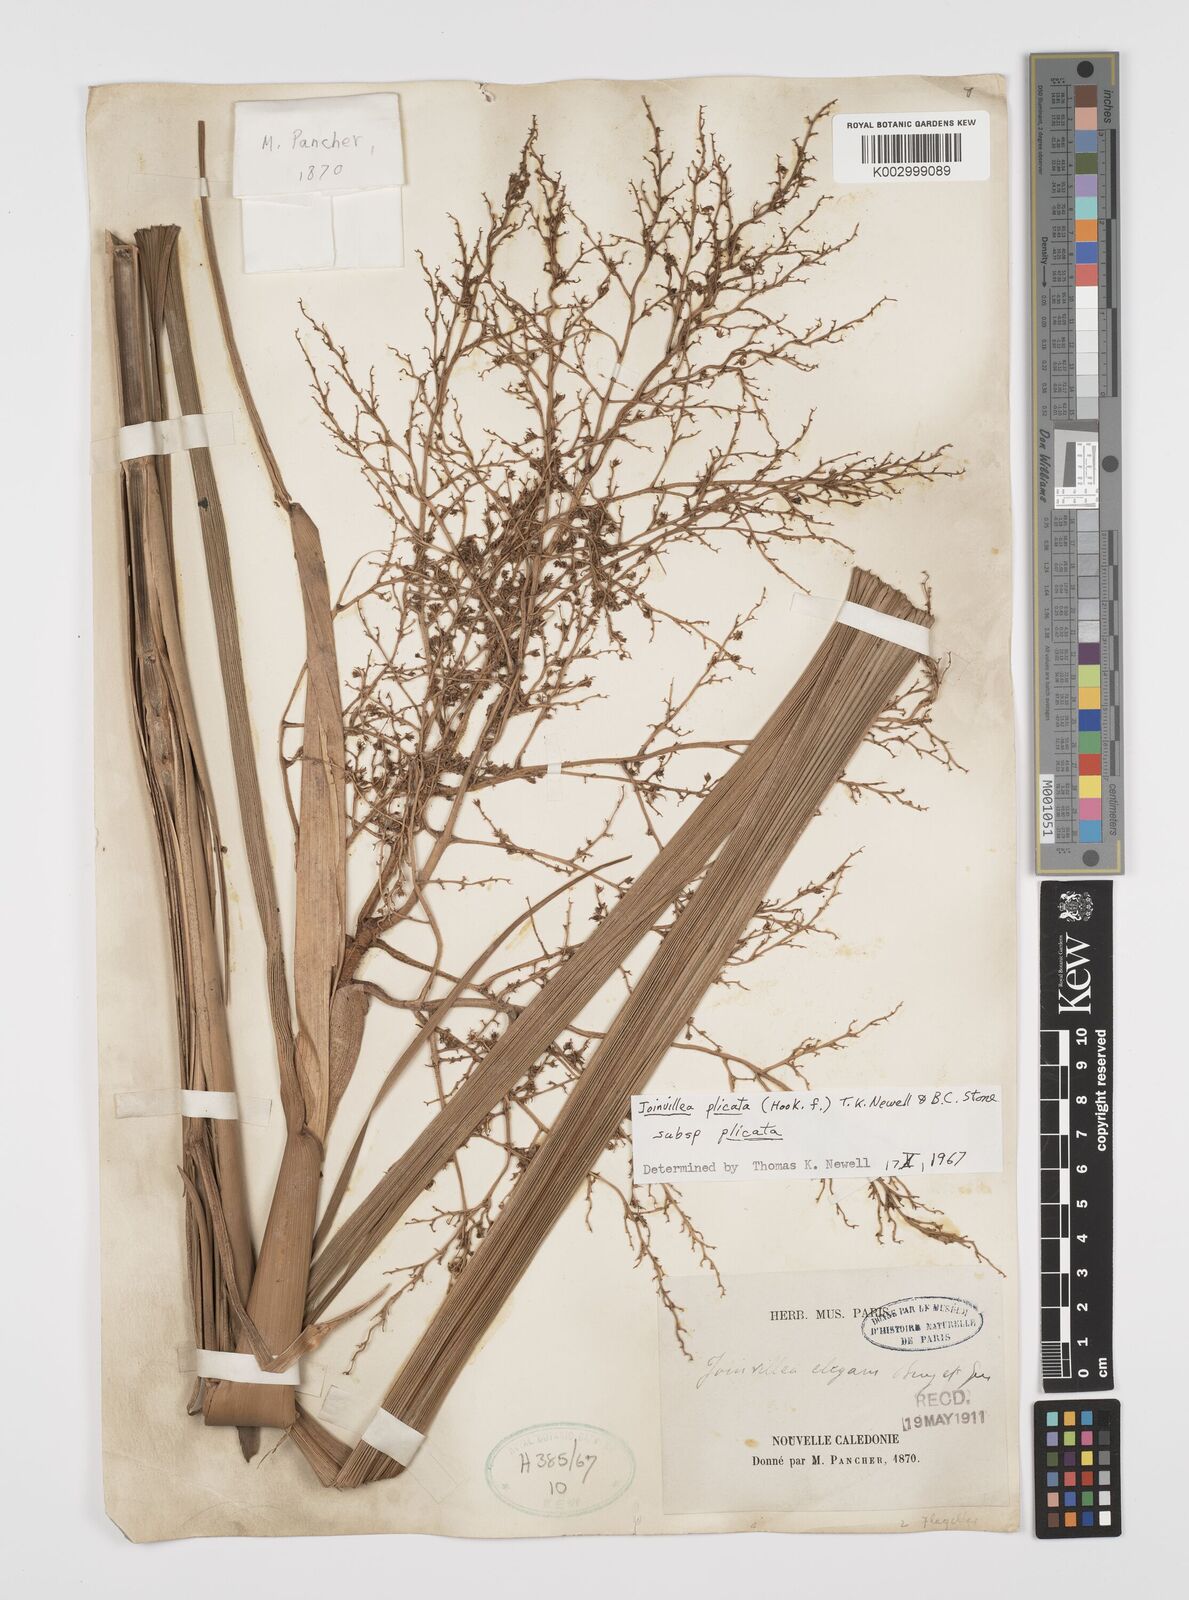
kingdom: Plantae
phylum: Tracheophyta
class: Liliopsida
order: Poales
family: Joinvilleaceae
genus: Joinvillea
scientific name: Joinvillea plicata
